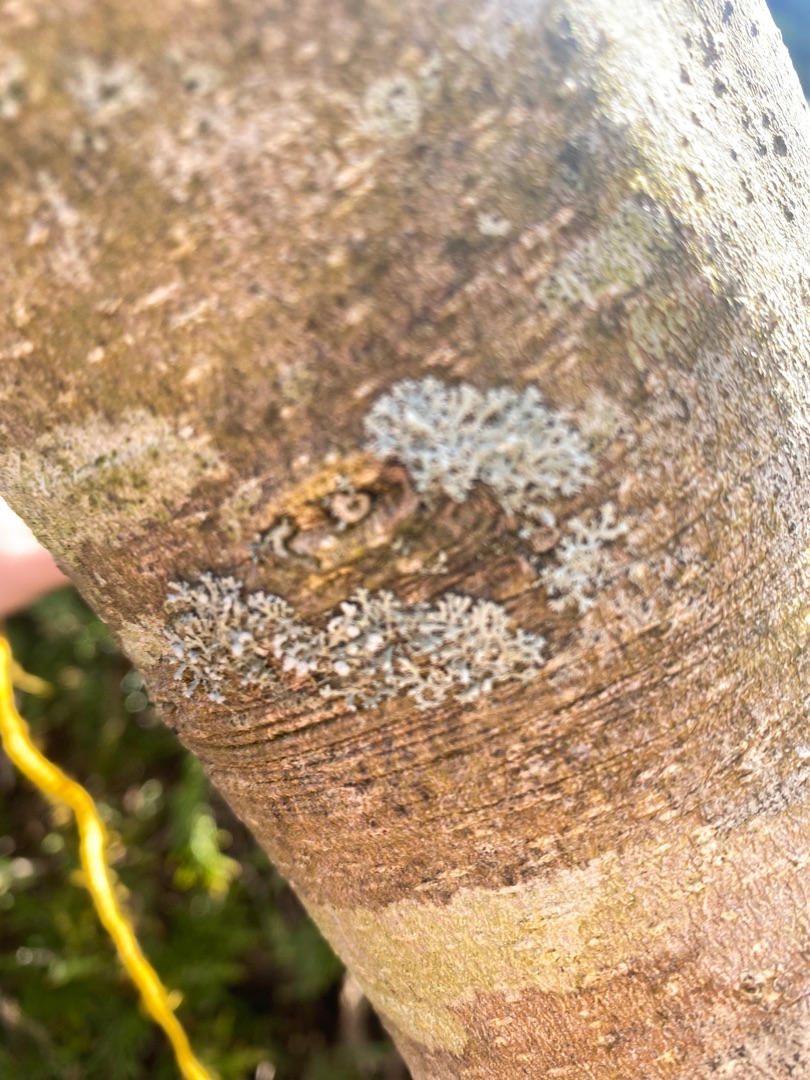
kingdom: Fungi
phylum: Ascomycota
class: Lecanoromycetes
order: Caliciales
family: Physciaceae
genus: Physcia
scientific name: Physcia tenella
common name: Spæd rosetlav
